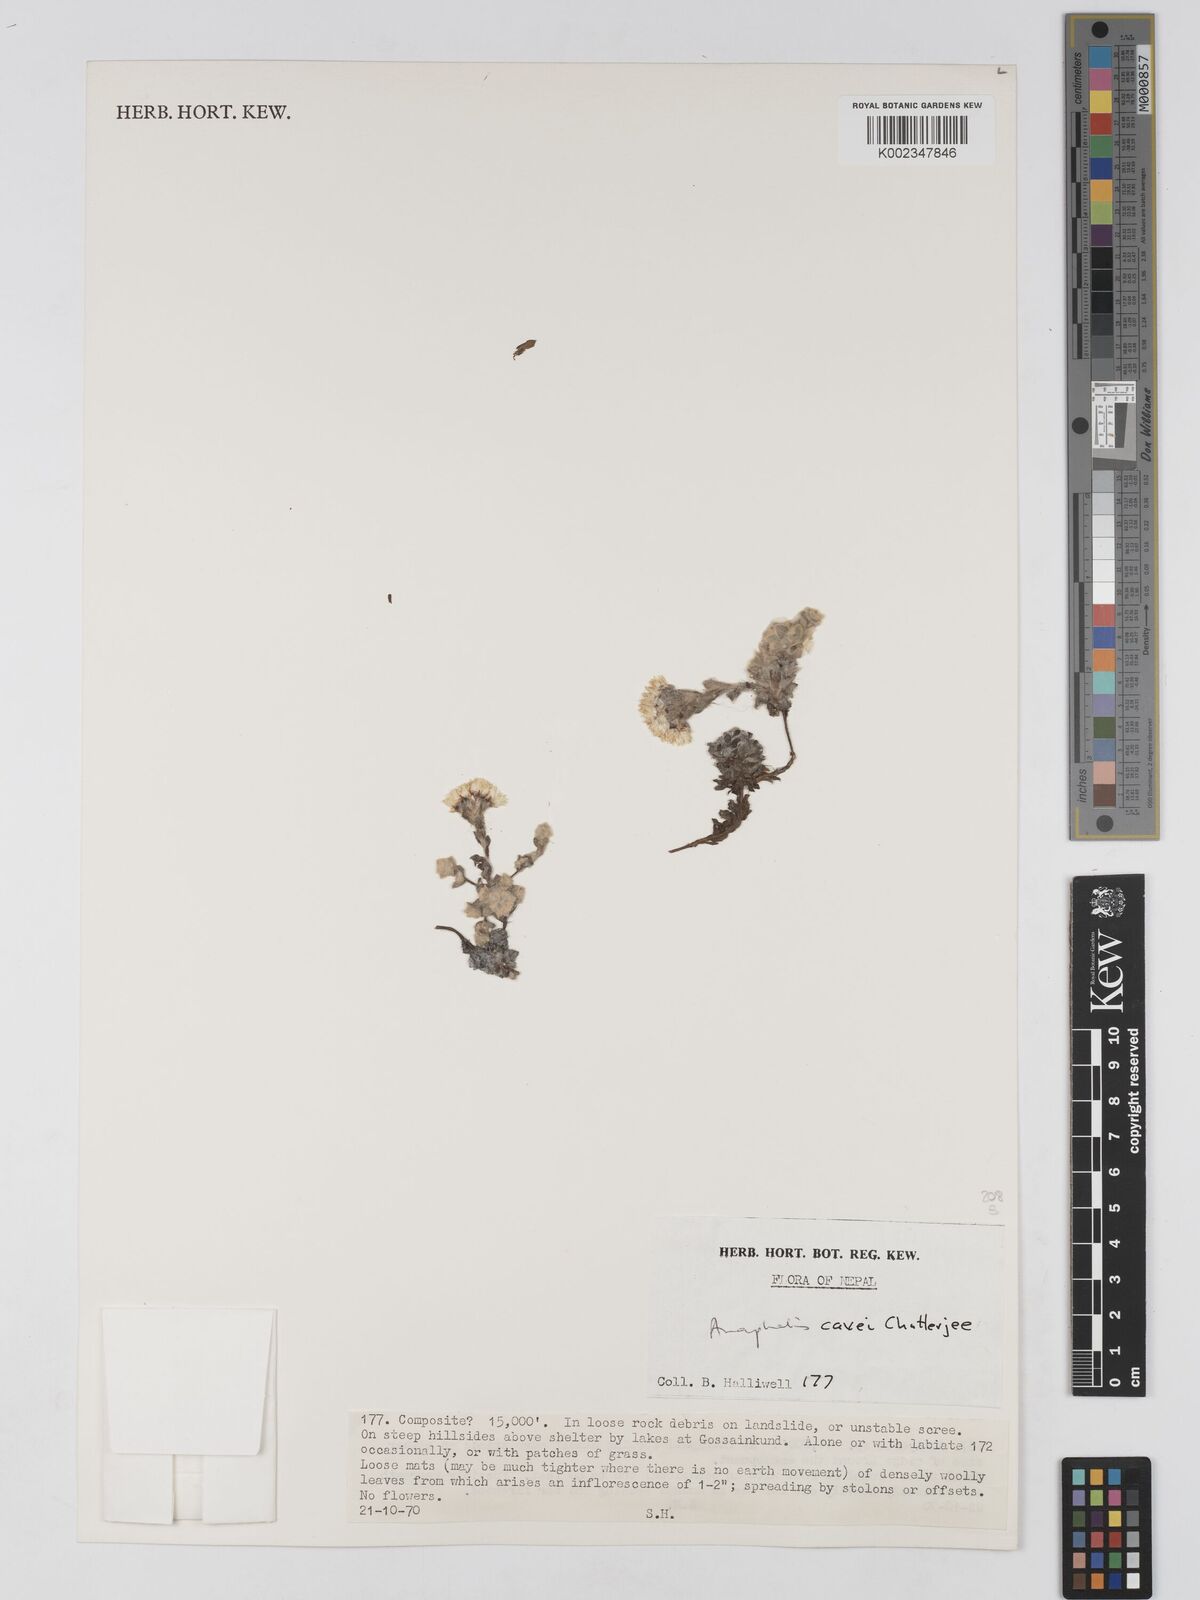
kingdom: Plantae
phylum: Tracheophyta
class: Magnoliopsida
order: Asterales
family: Asteraceae
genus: Anaphalis
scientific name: Anaphalis cavei
